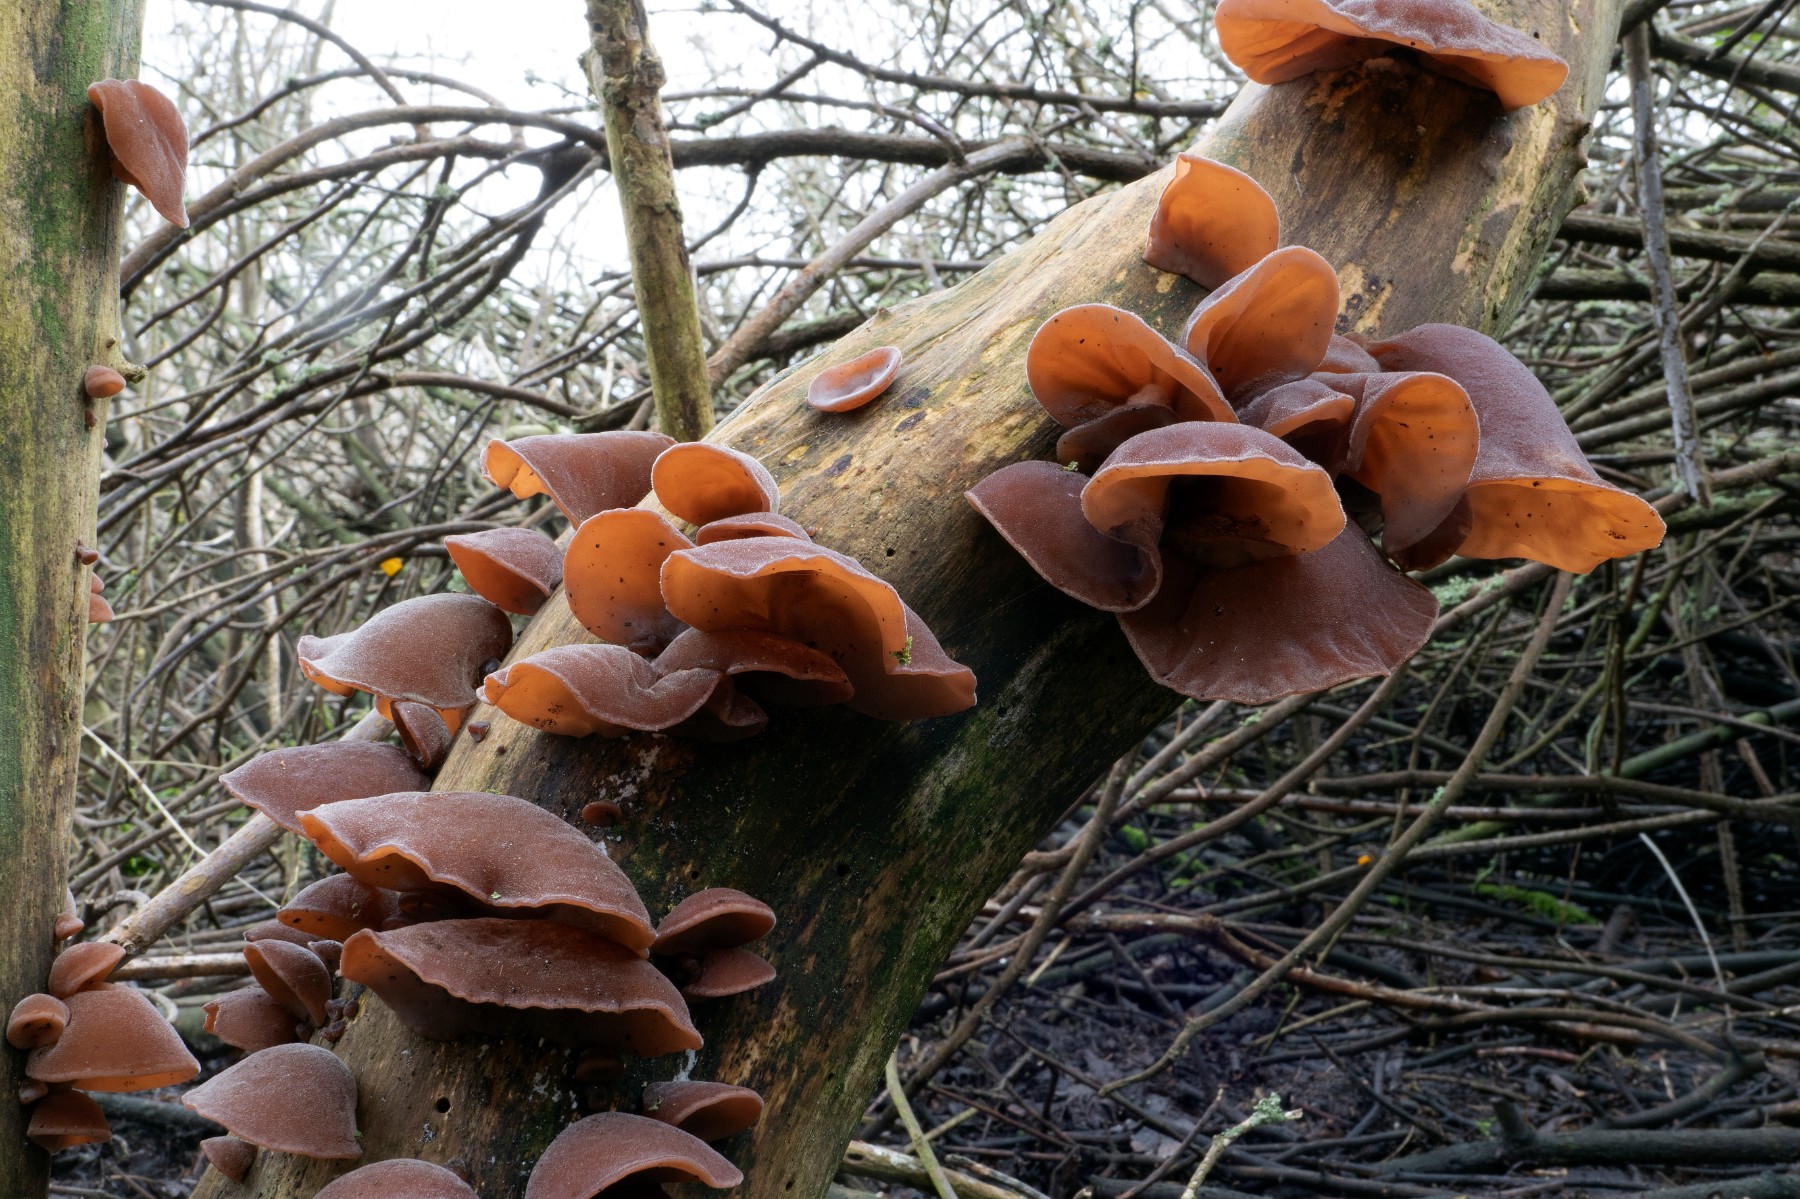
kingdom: Fungi
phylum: Basidiomycota
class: Agaricomycetes
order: Auriculariales
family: Auriculariaceae
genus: Auricularia
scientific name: Auricularia auricula-judae
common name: almindelig judasøre
